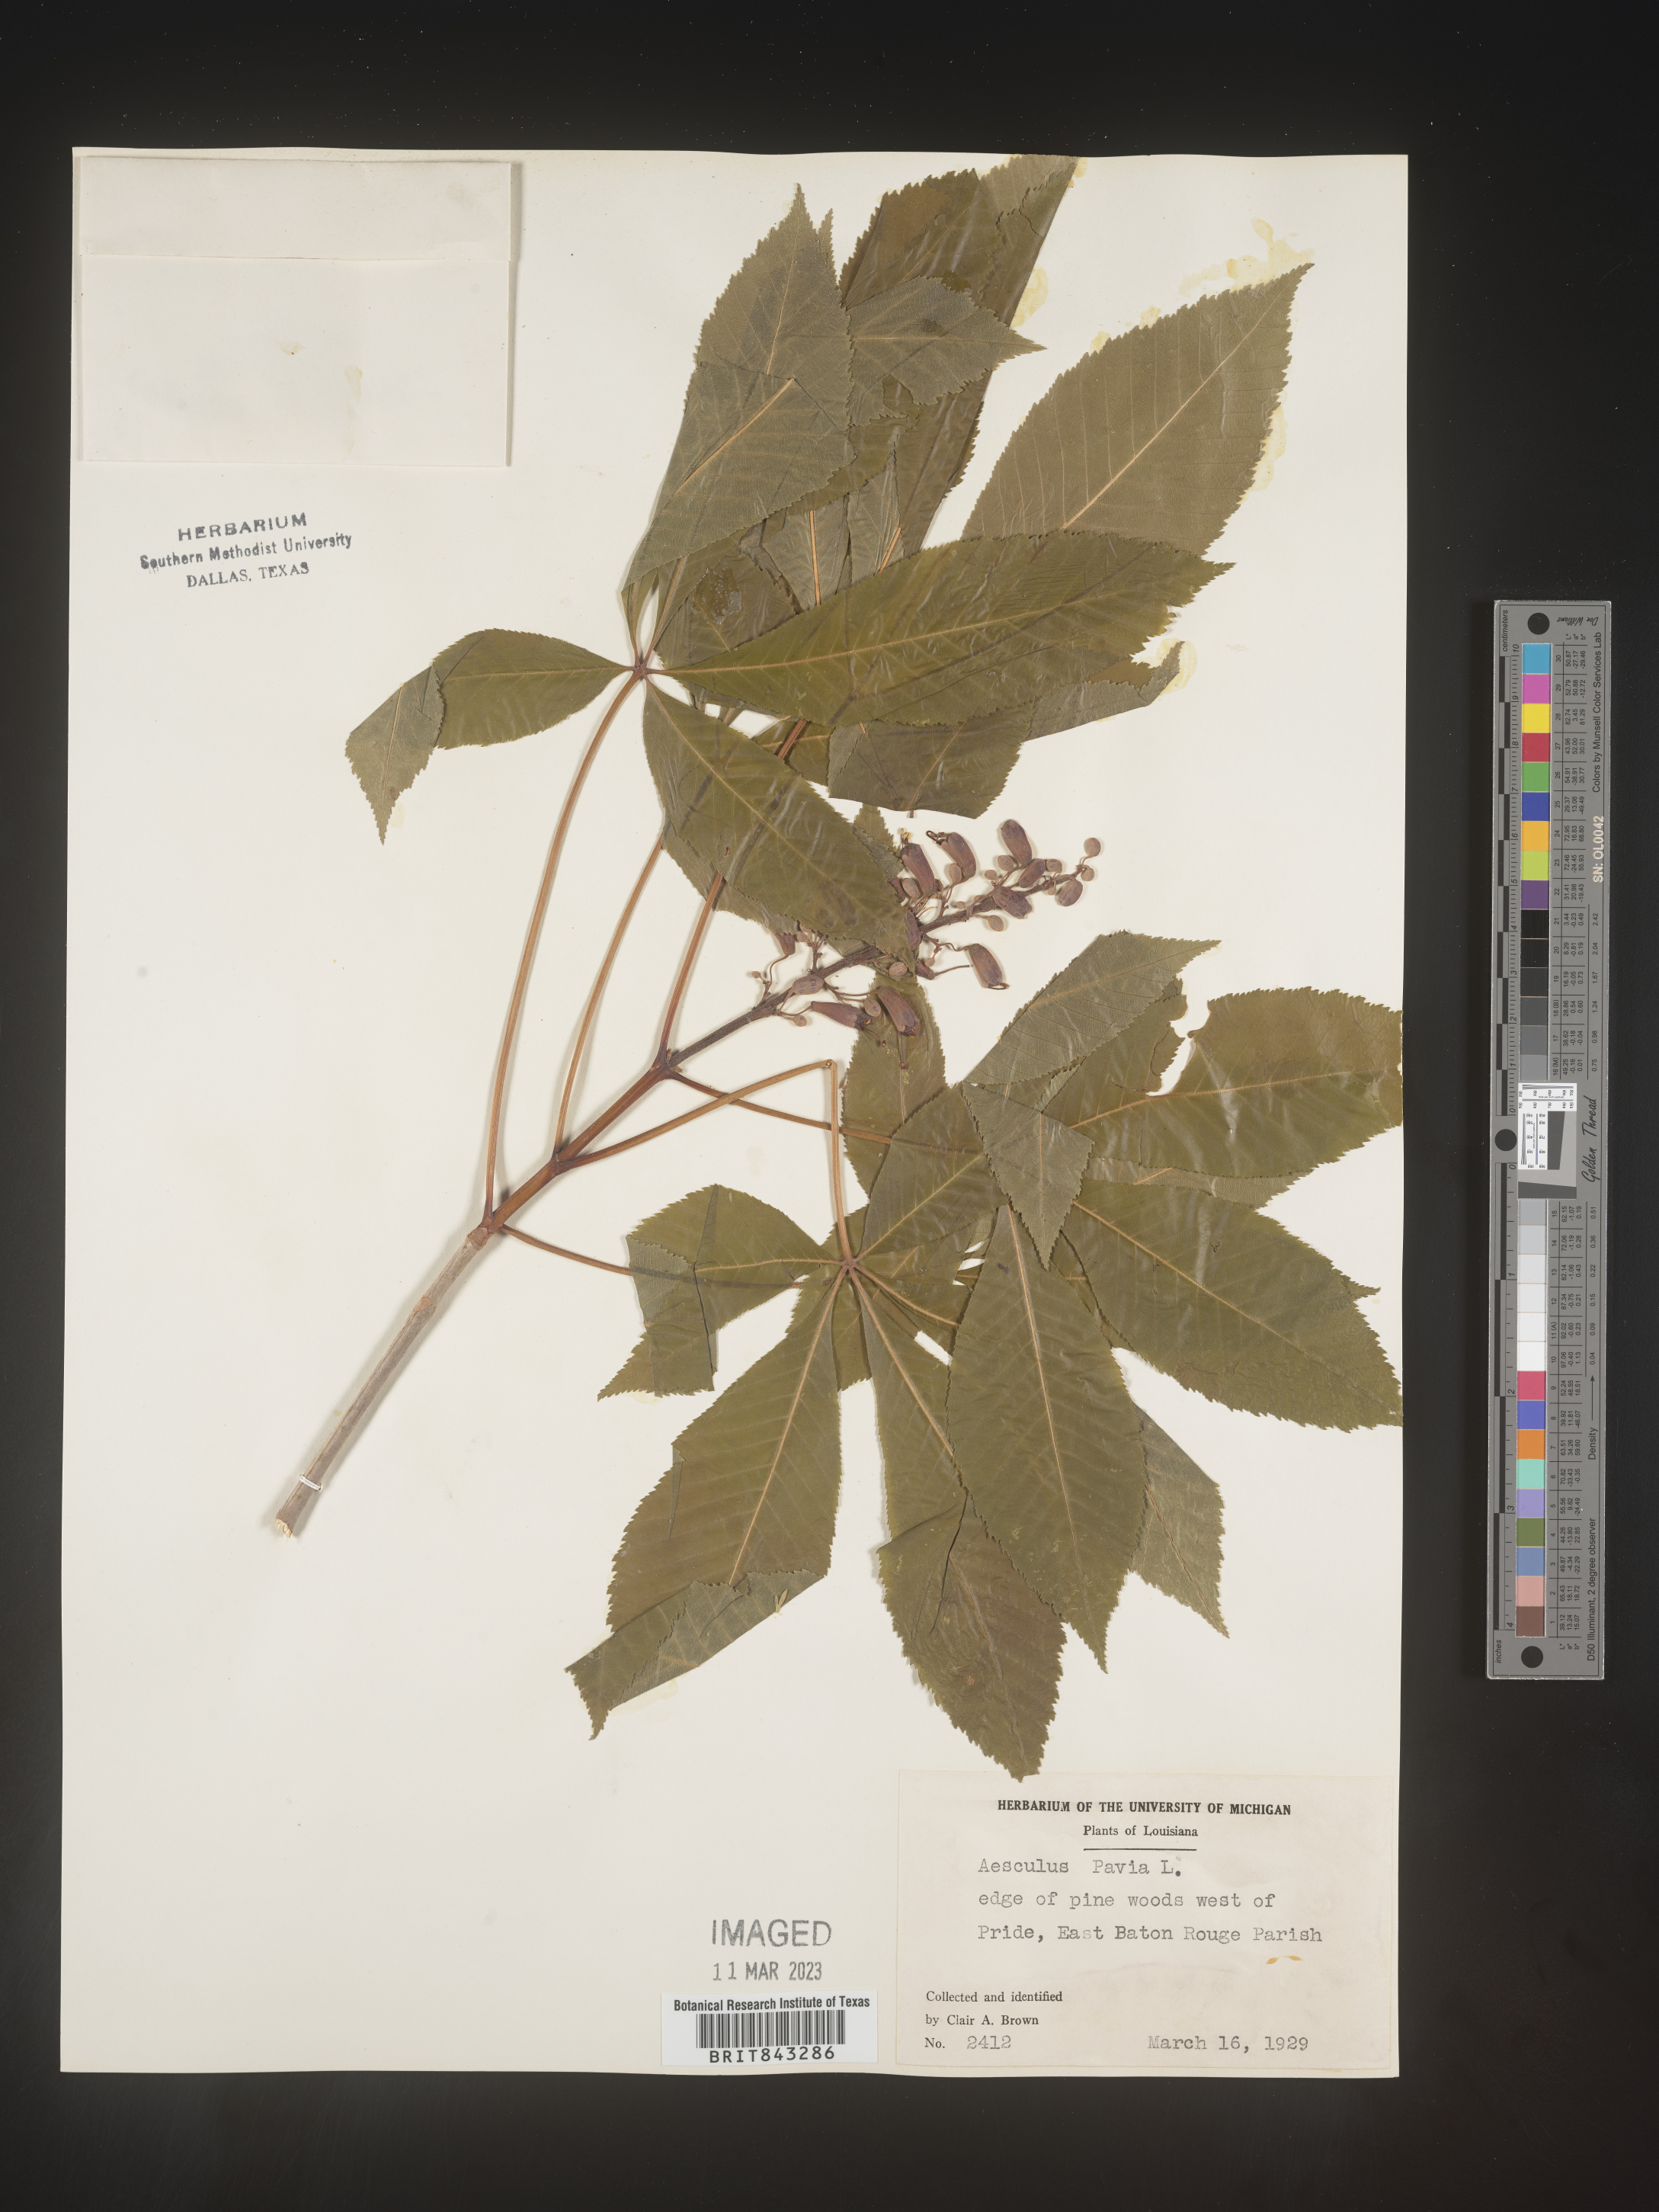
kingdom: Plantae
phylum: Tracheophyta
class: Magnoliopsida
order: Sapindales
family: Sapindaceae
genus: Aesculus
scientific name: Aesculus pavia
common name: Red buckeye
